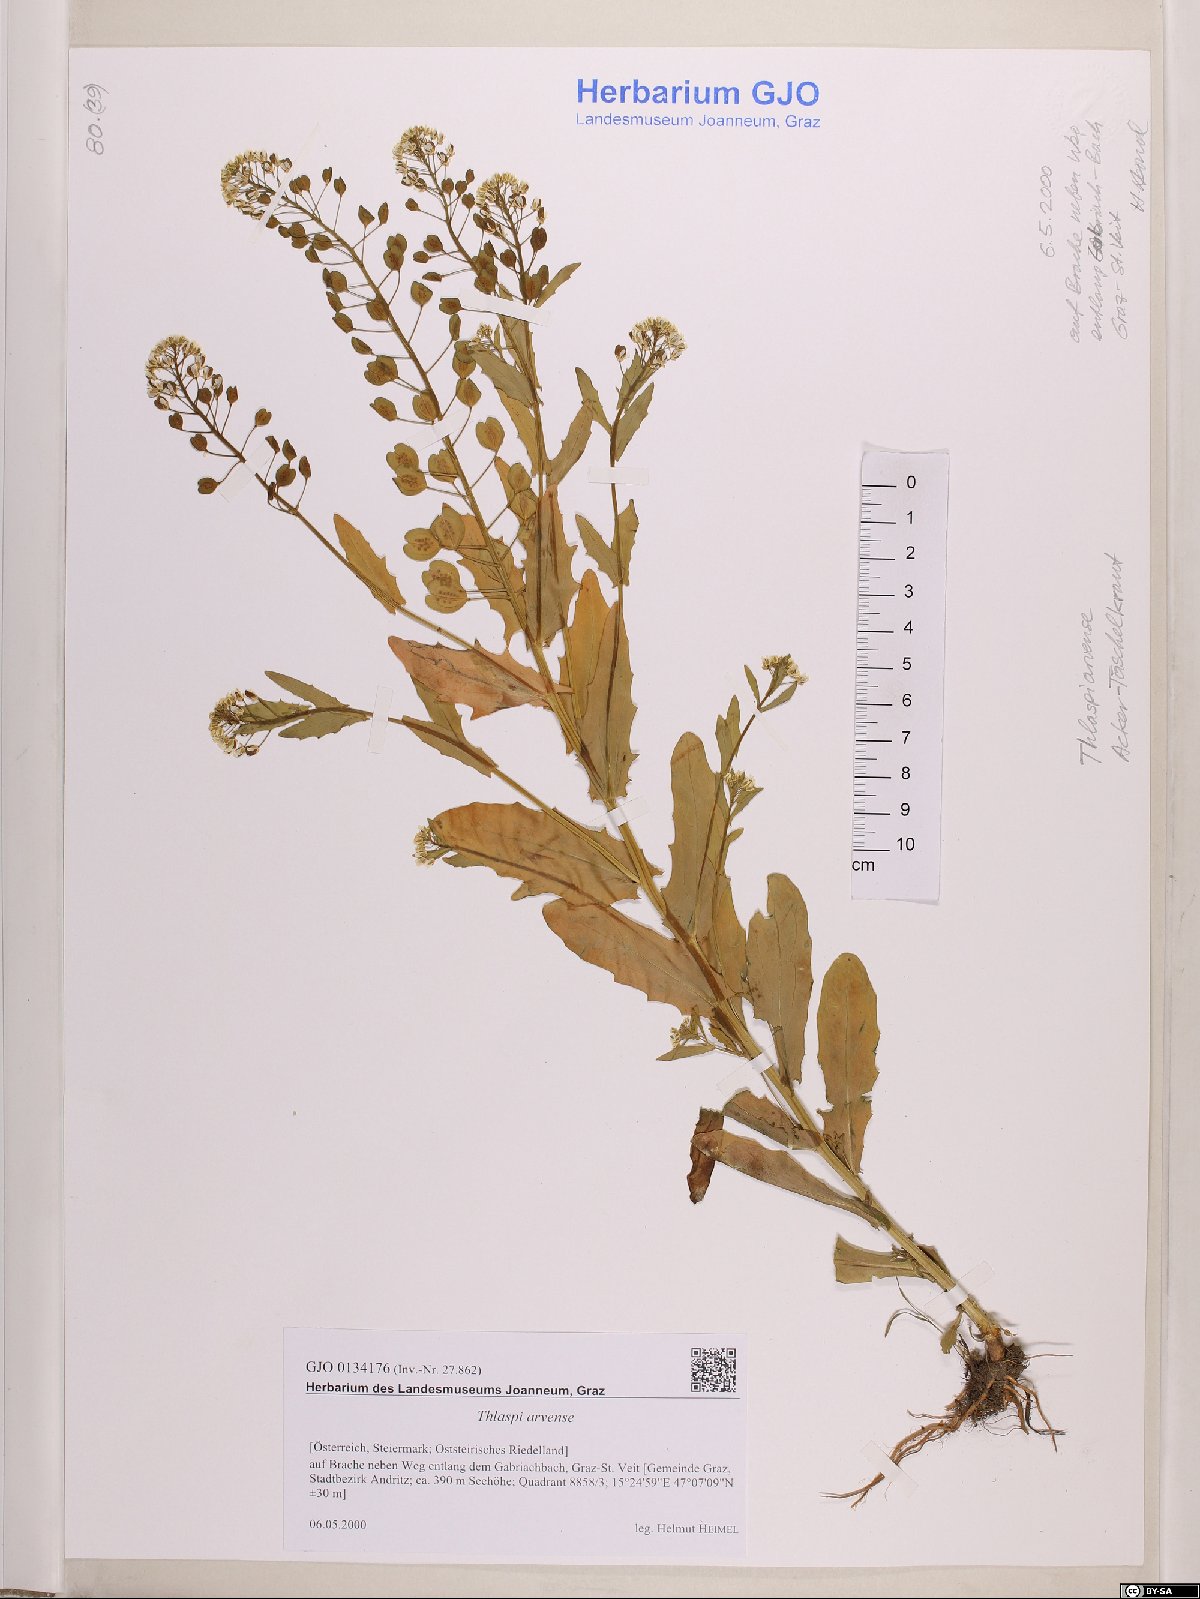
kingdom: Plantae
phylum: Tracheophyta
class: Magnoliopsida
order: Brassicales
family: Brassicaceae
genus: Thlaspi
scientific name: Thlaspi arvense
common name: Field pennycress
